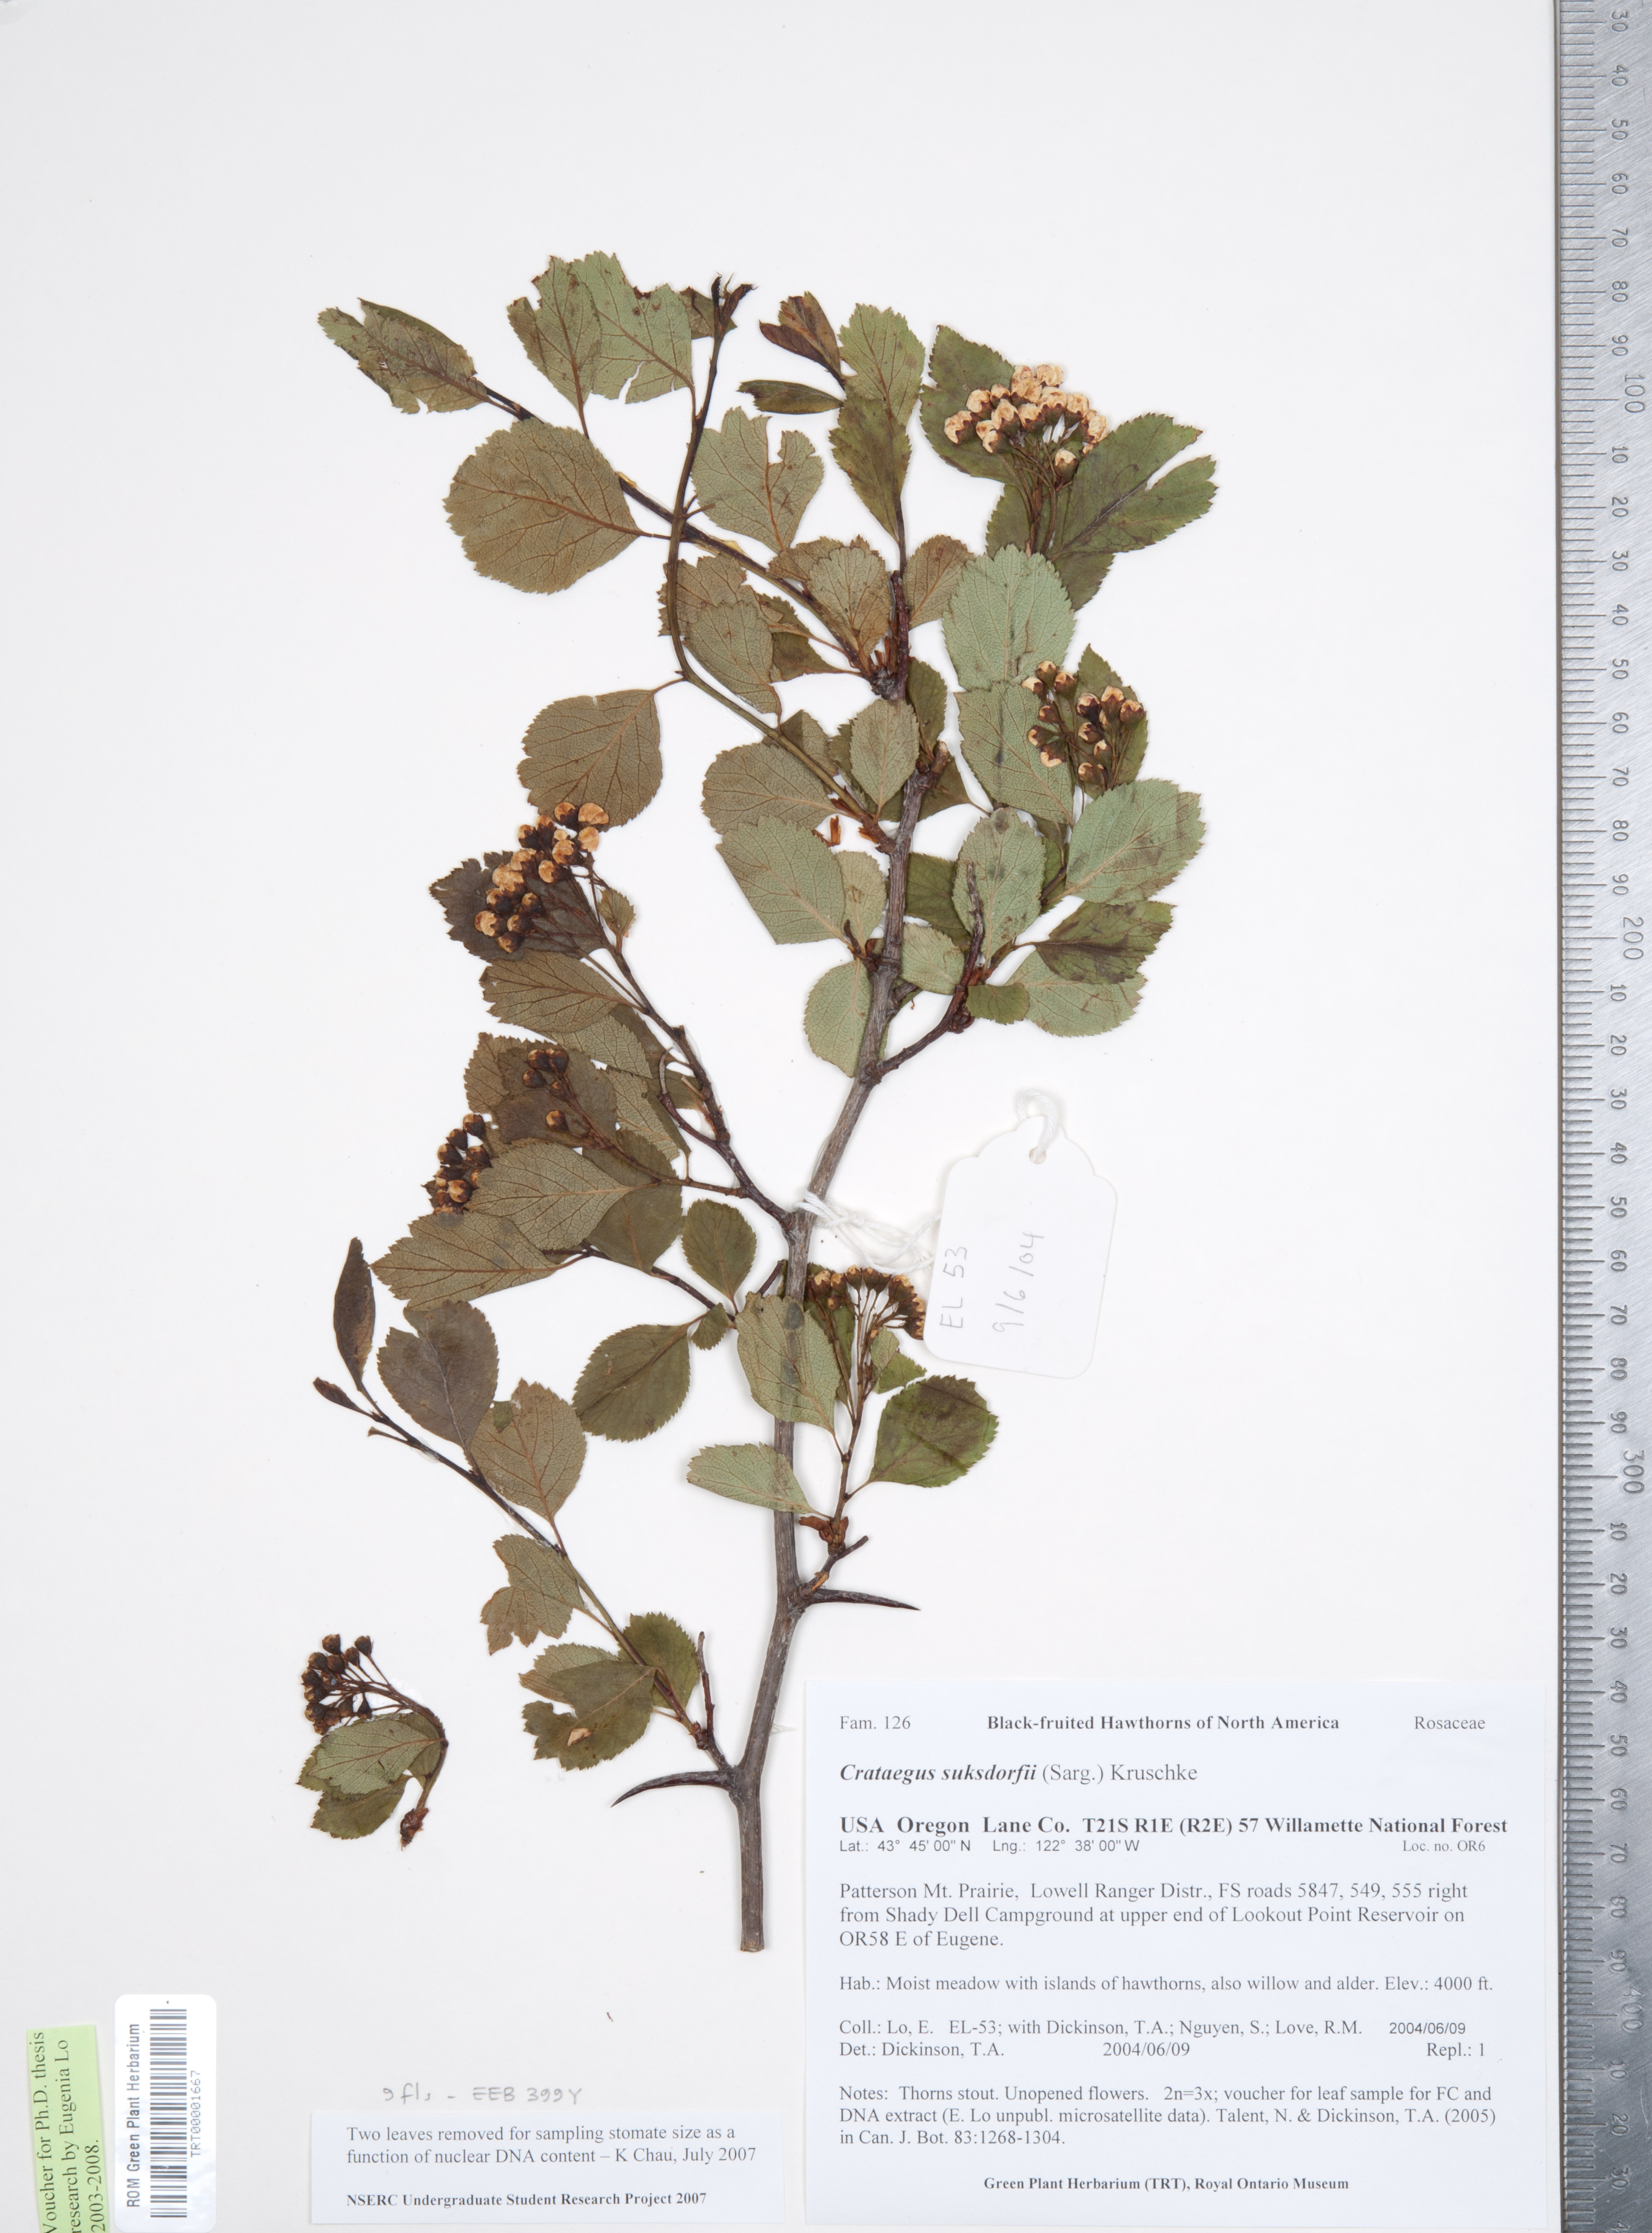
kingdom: Plantae
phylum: Tracheophyta
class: Magnoliopsida
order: Rosales
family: Rosaceae
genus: Crataegus
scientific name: Crataegus gaylussacia
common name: Huckleberry hawthorn
